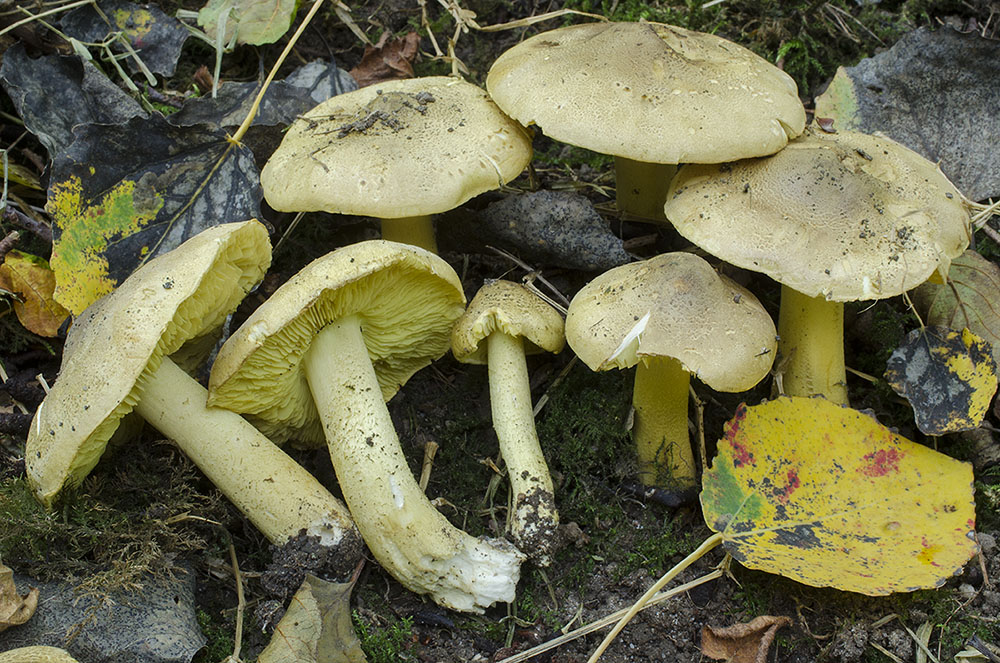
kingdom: Fungi
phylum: Basidiomycota
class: Agaricomycetes
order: Agaricales
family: Tricholomataceae
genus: Tricholoma
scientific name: Tricholoma frondosae
